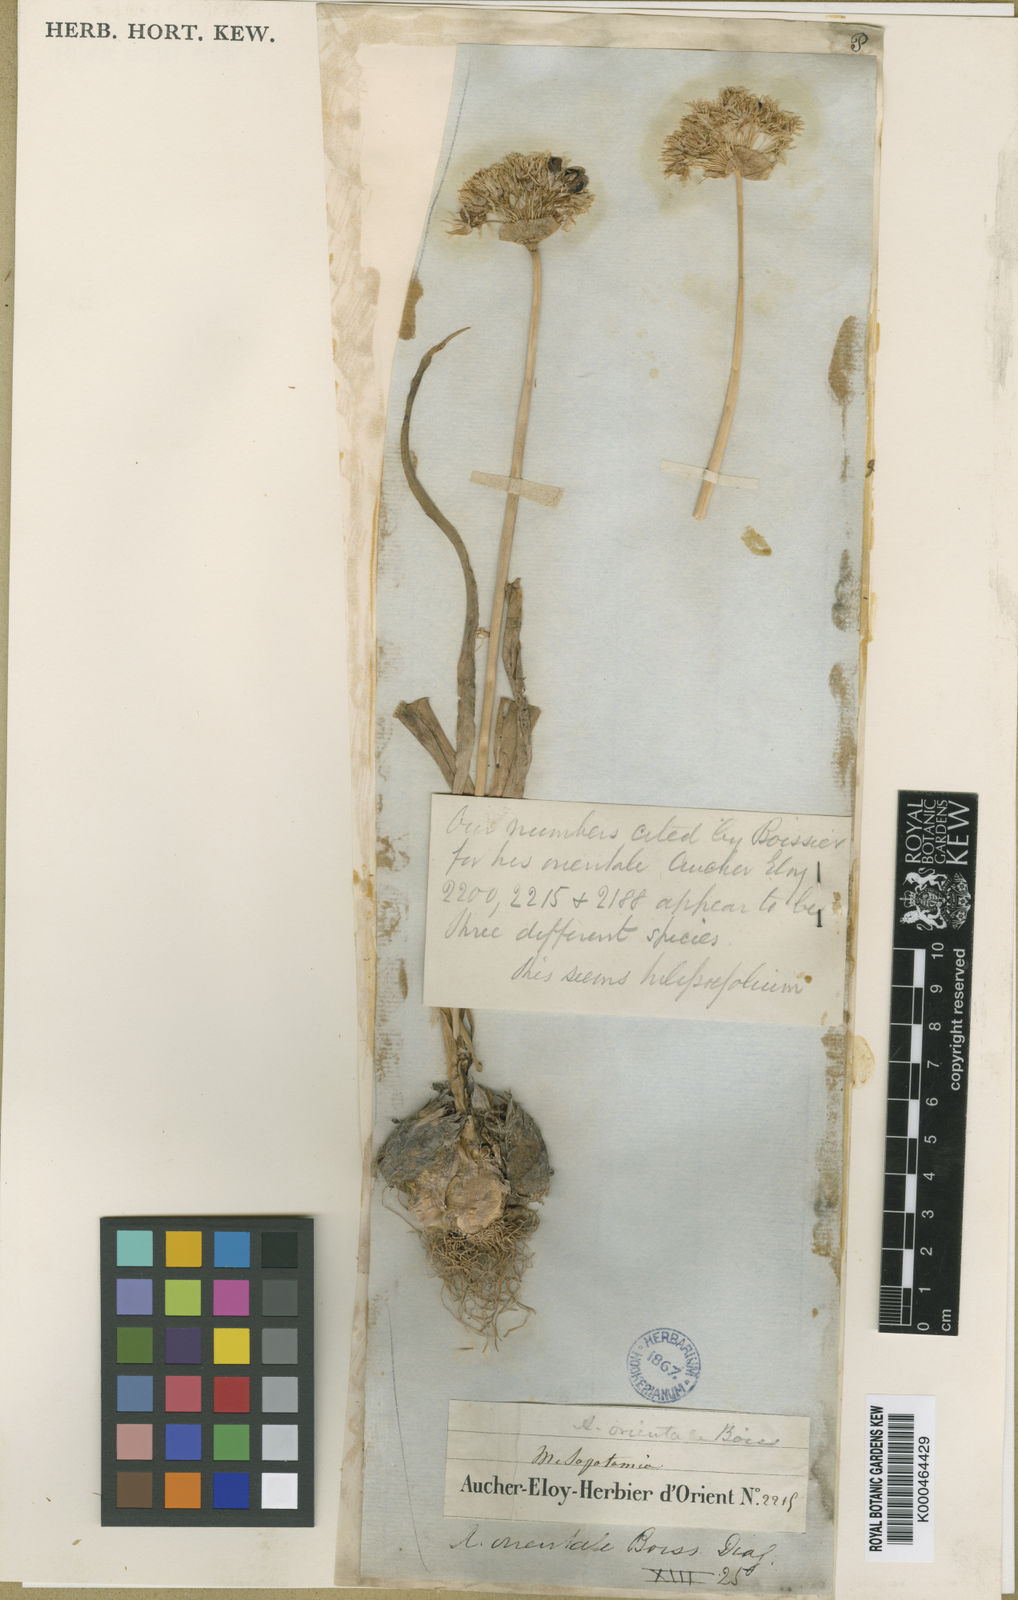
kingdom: Plantae
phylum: Tracheophyta
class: Liliopsida
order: Asparagales
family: Amaryllidaceae
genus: Allium
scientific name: Allium orientale
